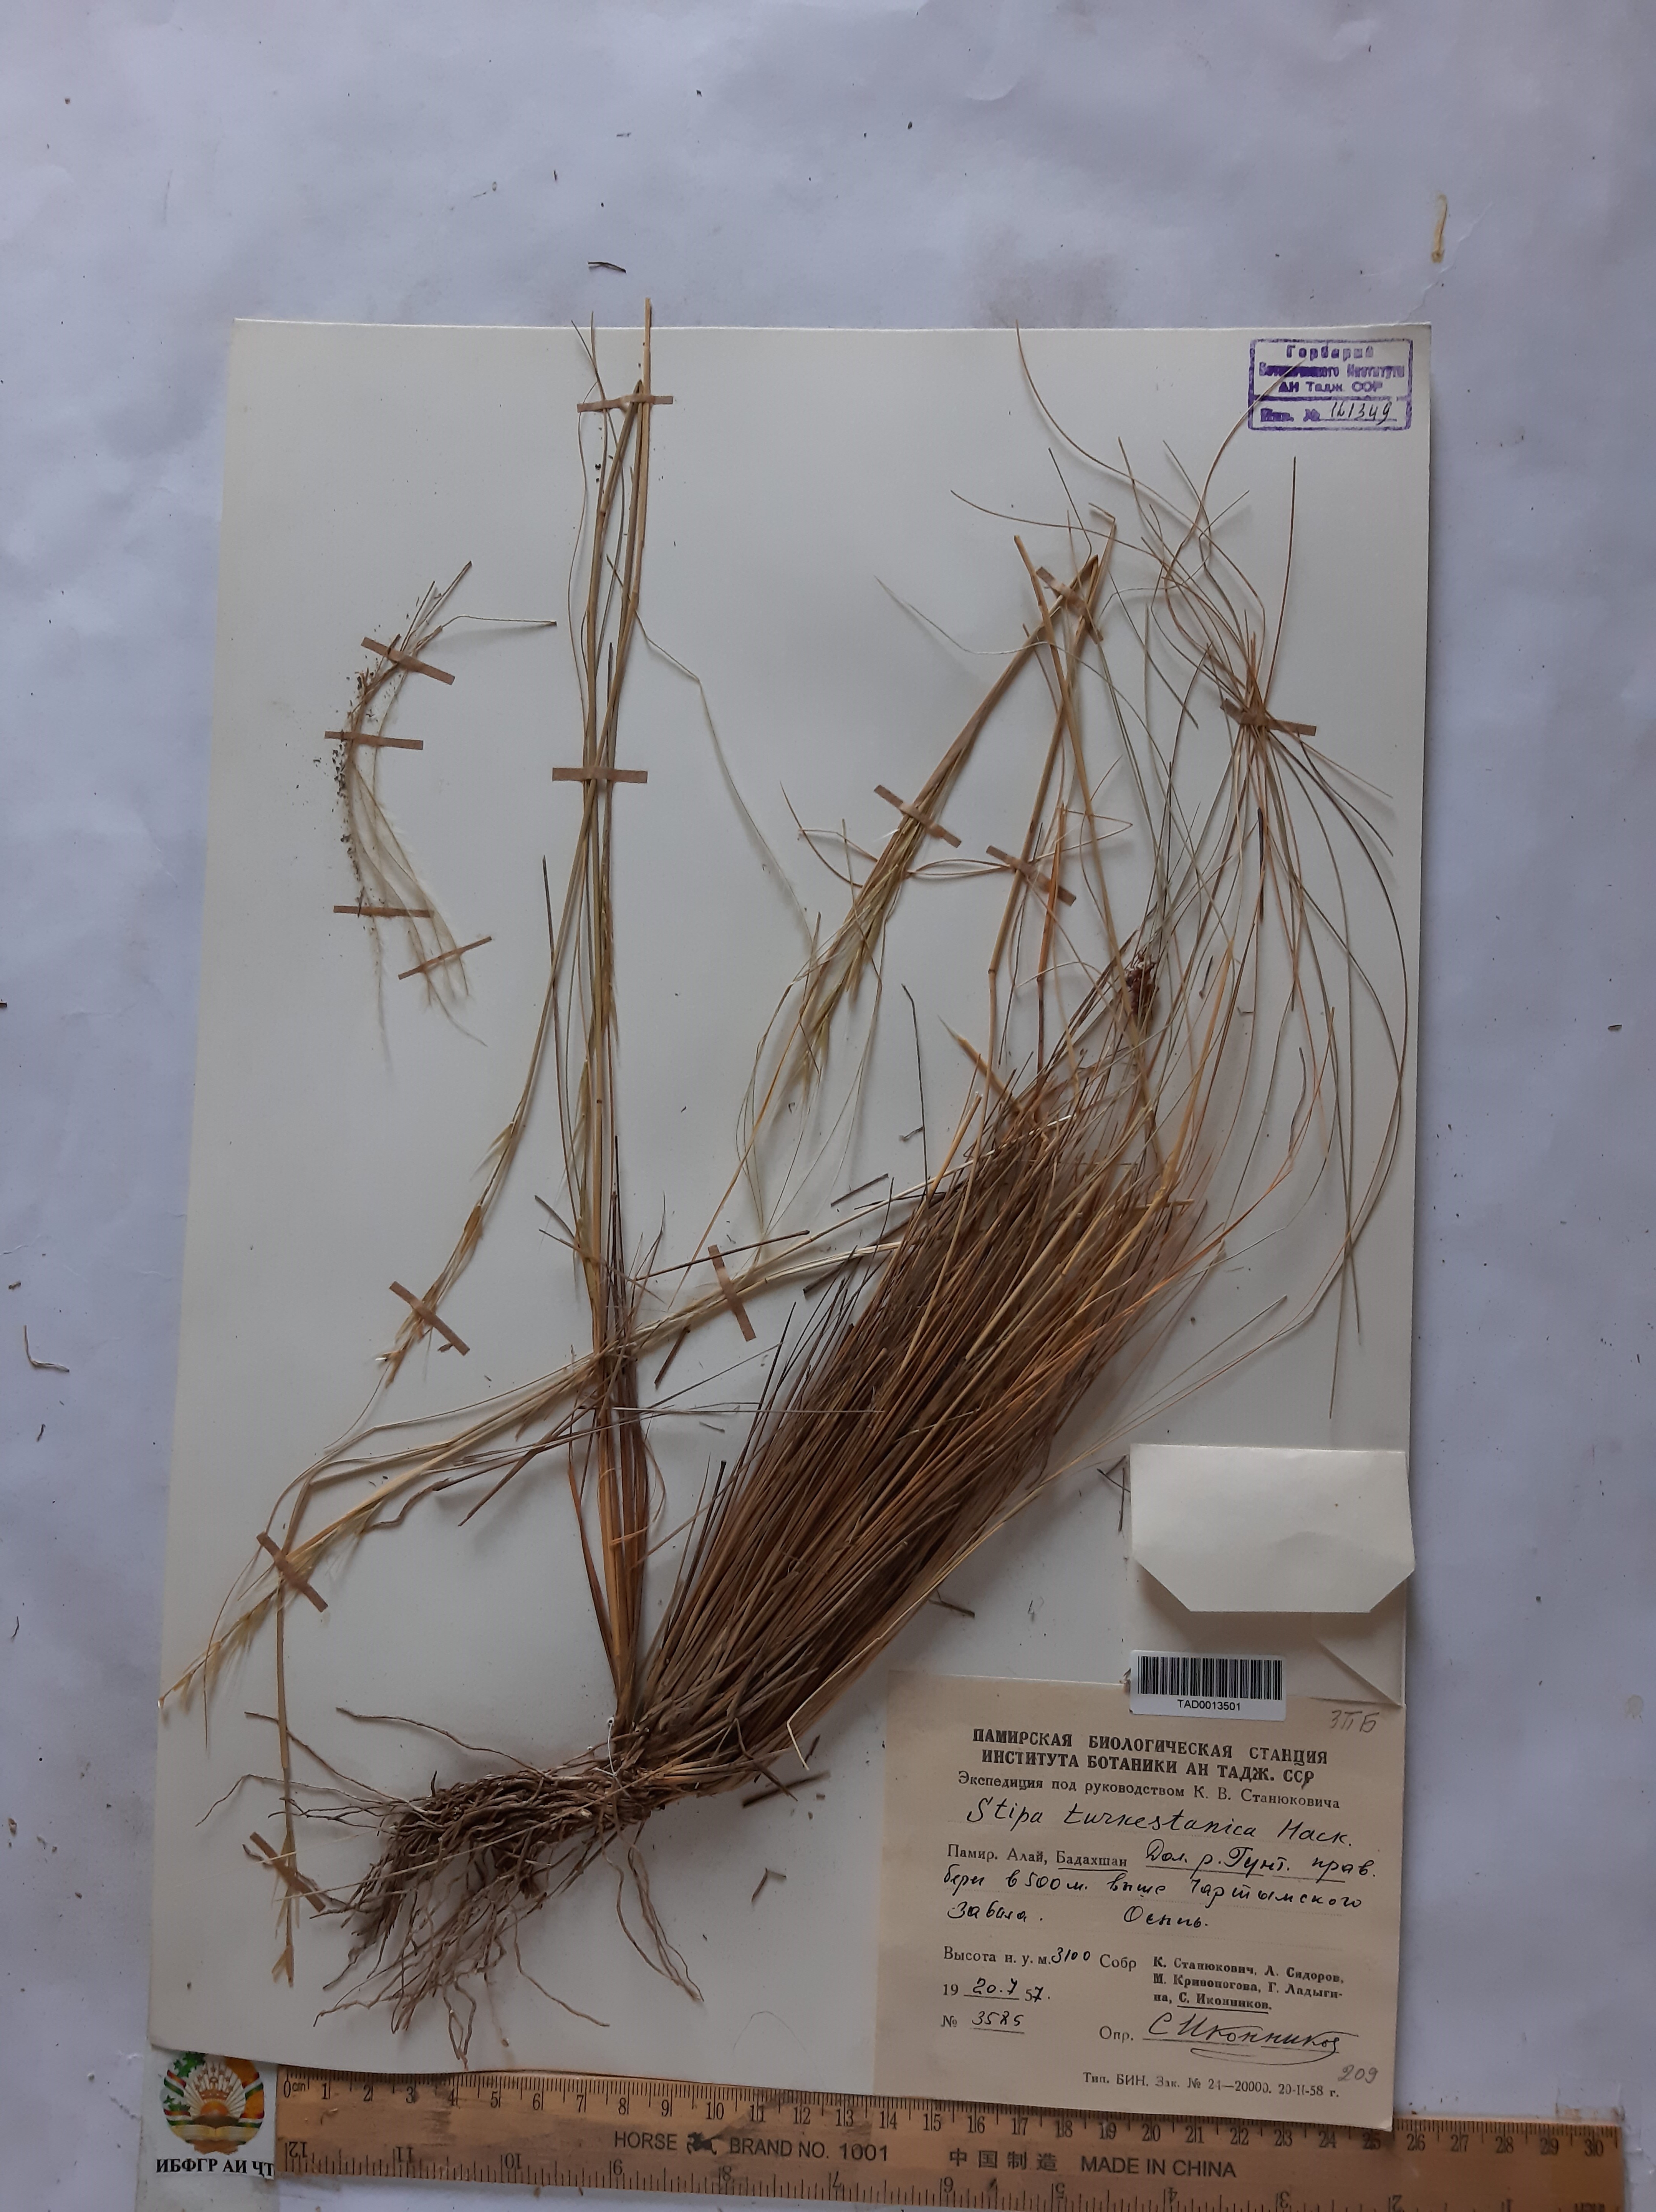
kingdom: Plantae
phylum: Tracheophyta
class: Liliopsida
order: Poales
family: Poaceae
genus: Stipa
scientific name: Stipa turkestanica
